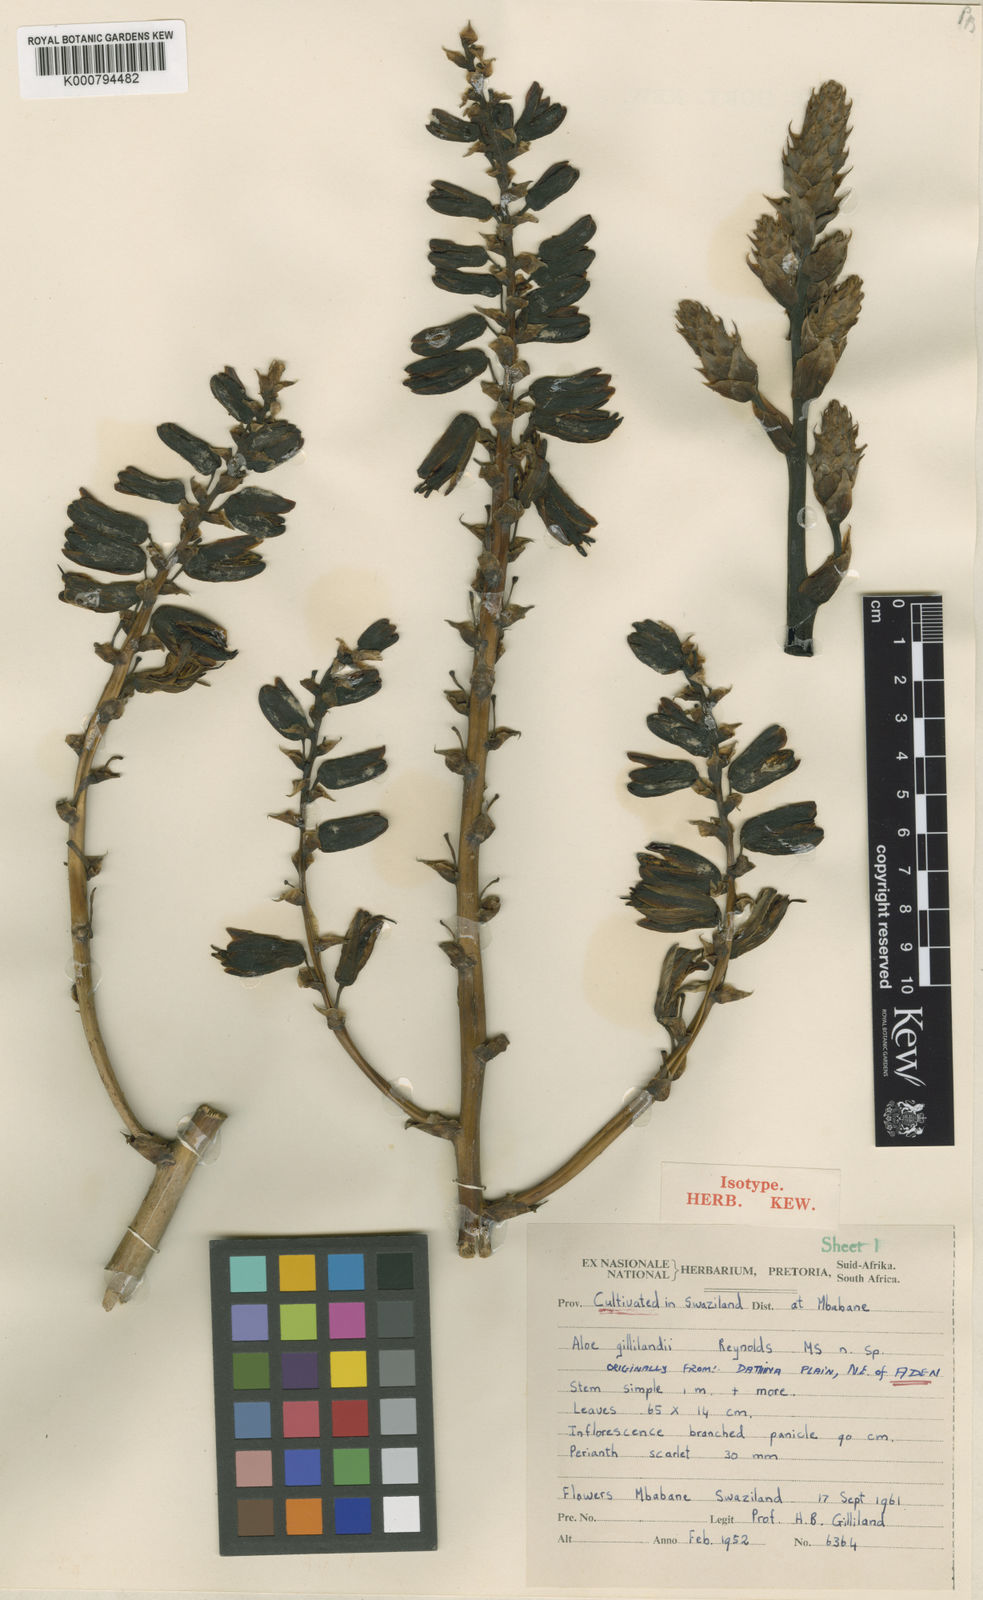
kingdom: Plantae
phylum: Tracheophyta
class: Liliopsida
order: Asparagales
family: Asphodelaceae
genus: Aloidendron
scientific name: Aloidendron sabaeum
